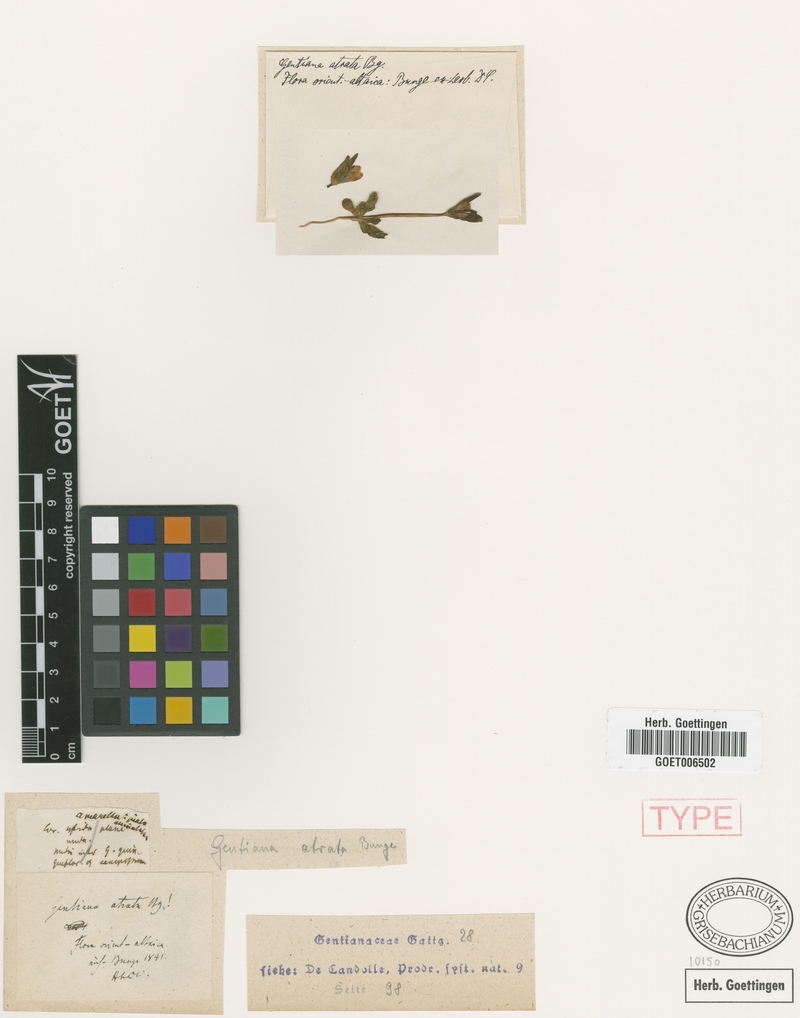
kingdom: Plantae
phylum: Tracheophyta
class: Magnoliopsida
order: Gentianales
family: Gentianaceae
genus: Gentianella
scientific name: Gentianella atrata
